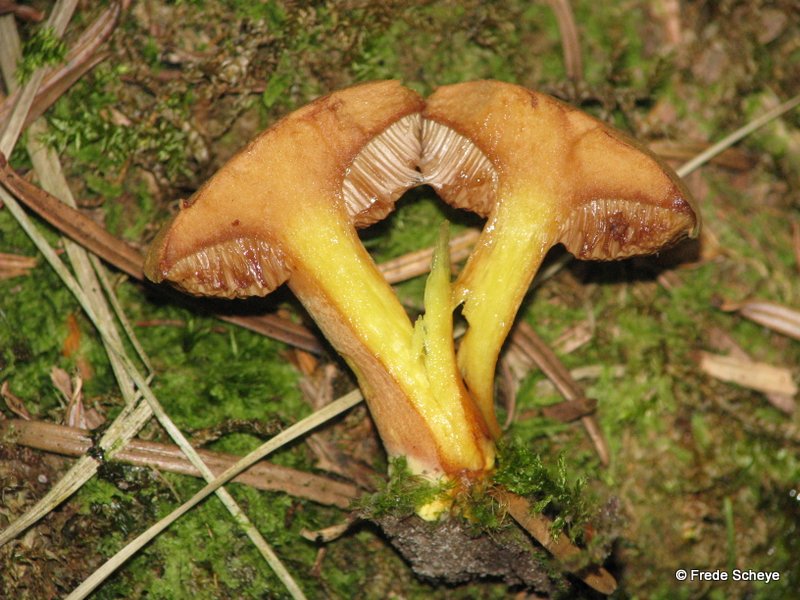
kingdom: Fungi
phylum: Basidiomycota
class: Agaricomycetes
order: Boletales
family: Boletaceae
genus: Chalciporus
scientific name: Chalciporus piperatus
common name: peberrørhat
